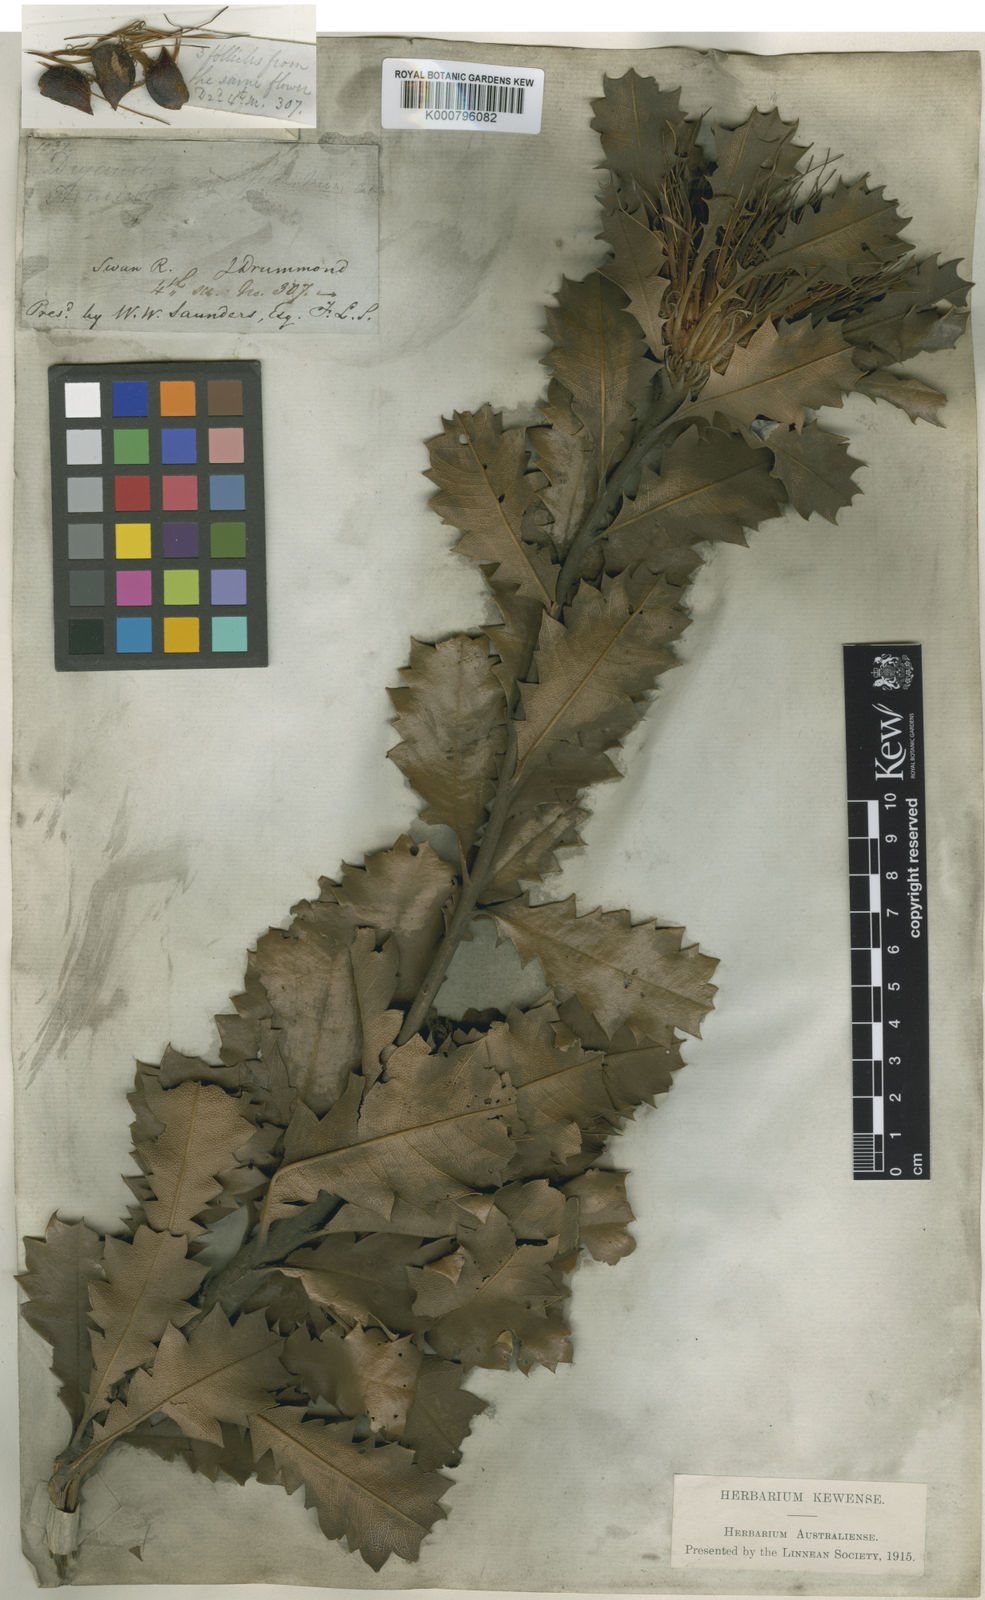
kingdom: Plantae
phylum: Tracheophyta
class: Magnoliopsida
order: Proteales
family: Proteaceae
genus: Banksia
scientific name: Banksia heliantha
